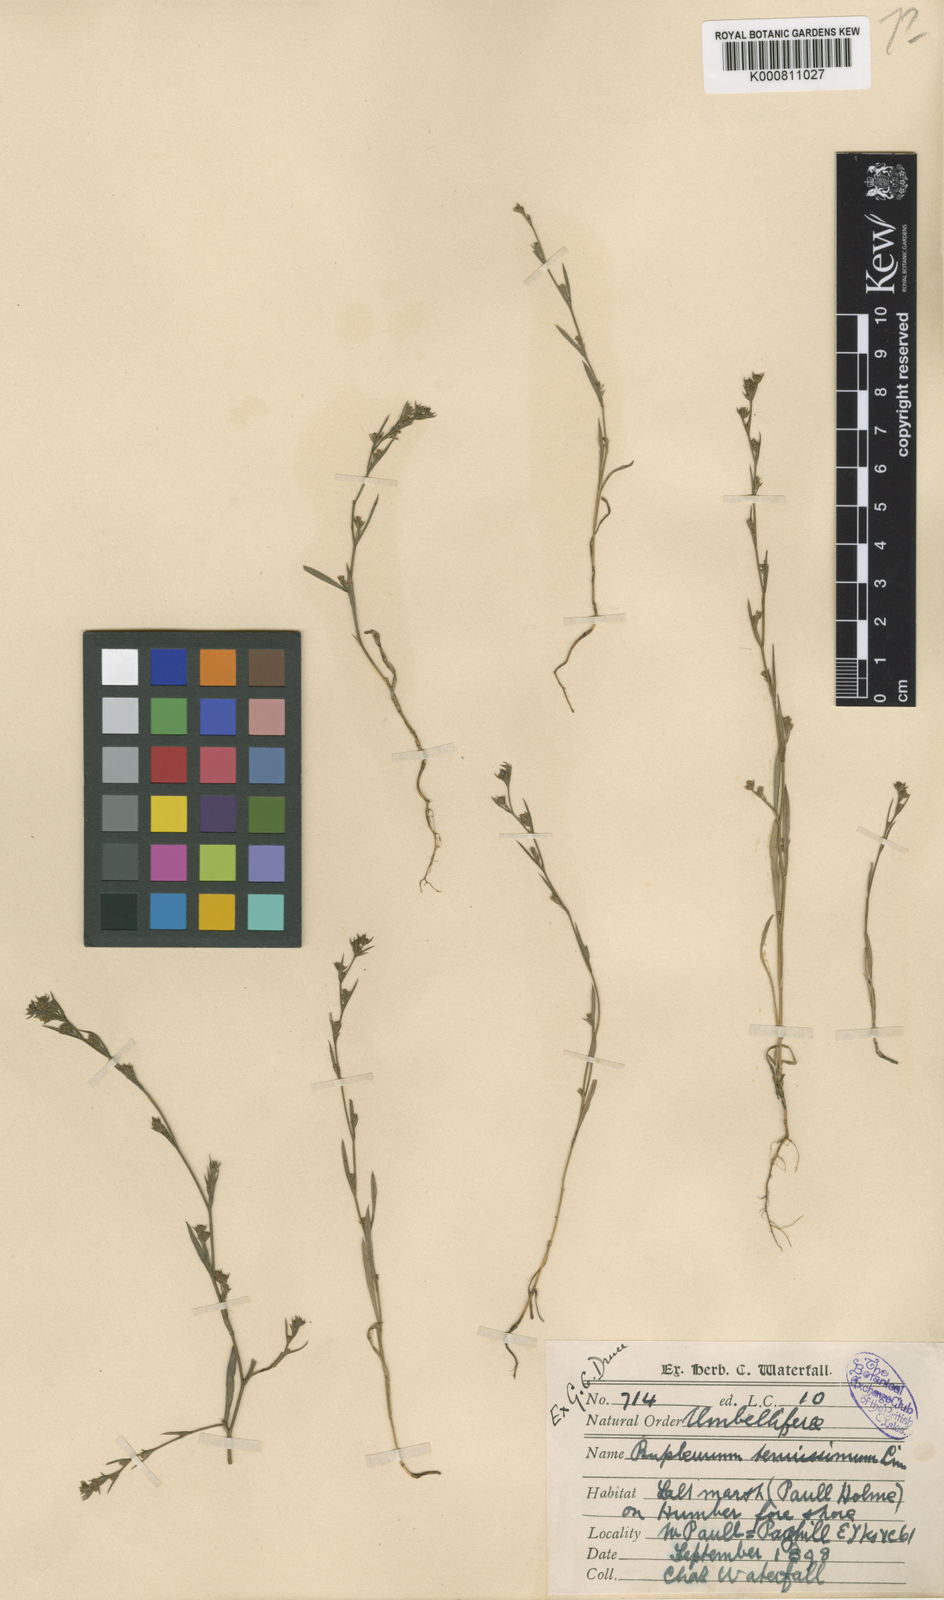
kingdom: Plantae
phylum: Tracheophyta
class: Magnoliopsida
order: Apiales
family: Apiaceae
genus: Bupleurum
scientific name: Bupleurum tenuissimum
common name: Slender hare's-ear
